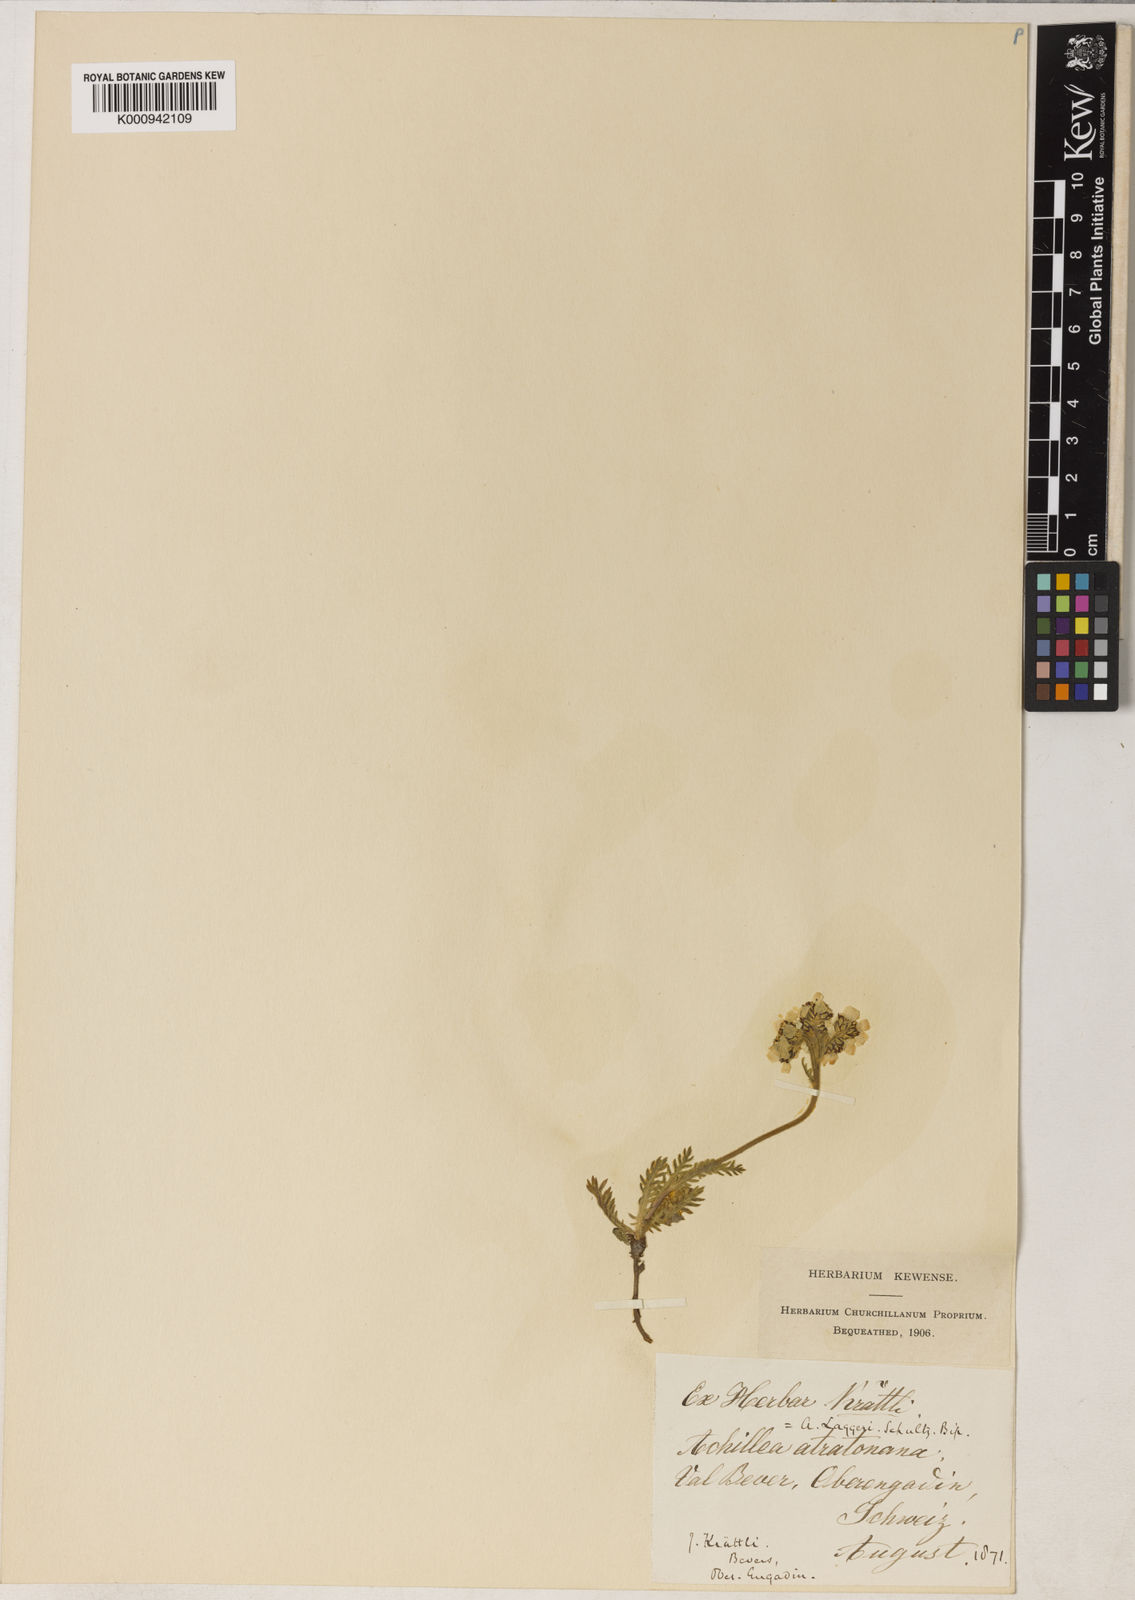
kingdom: Plantae
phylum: Tracheophyta
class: Magnoliopsida
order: Asterales
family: Asteraceae
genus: Achillea
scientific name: Achillea atrata
